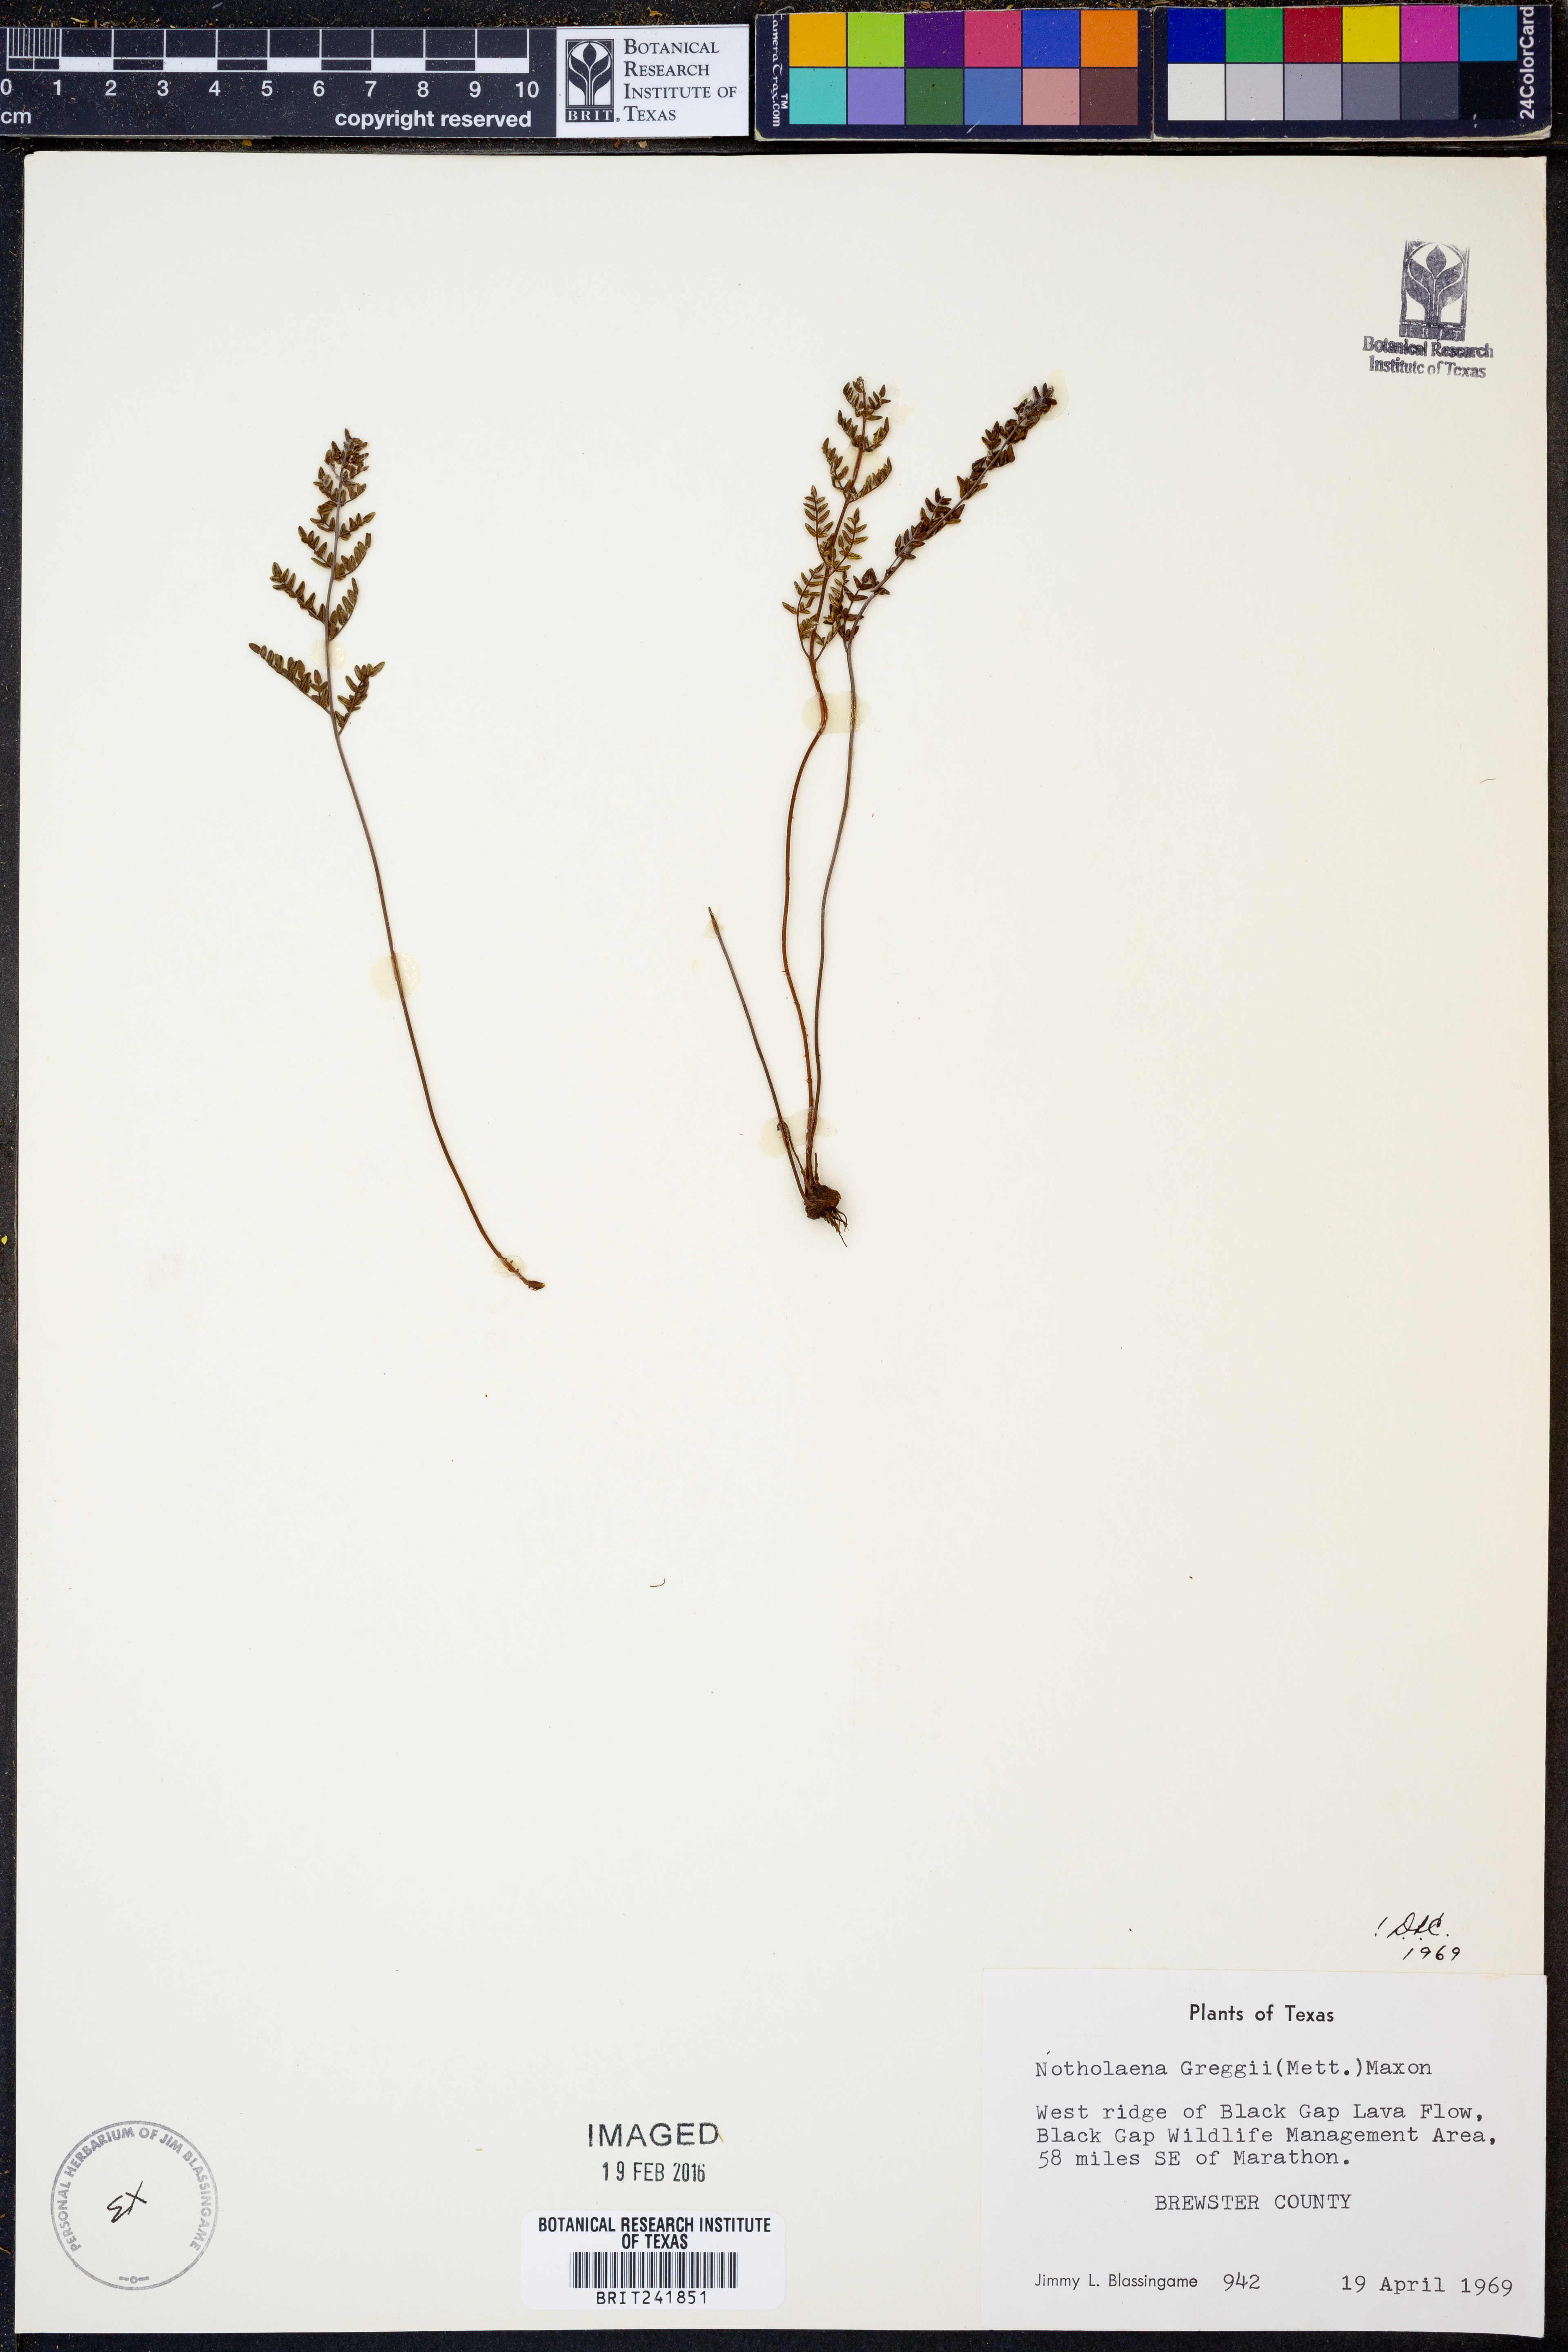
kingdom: Plantae
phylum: Tracheophyta
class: Polypodiopsida
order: Polypodiales
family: Pteridaceae
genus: Notholaena
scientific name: Notholaena greggii
